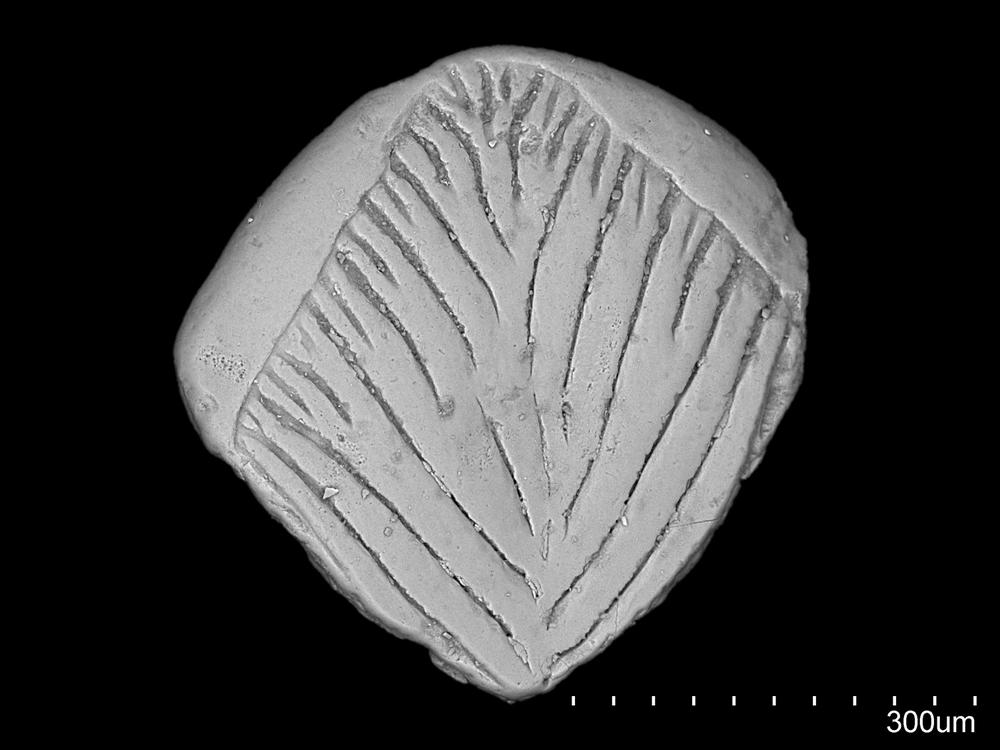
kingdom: Animalia
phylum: Chordata
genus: Ptychodictyon
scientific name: Ptychodictyon sulcatum
